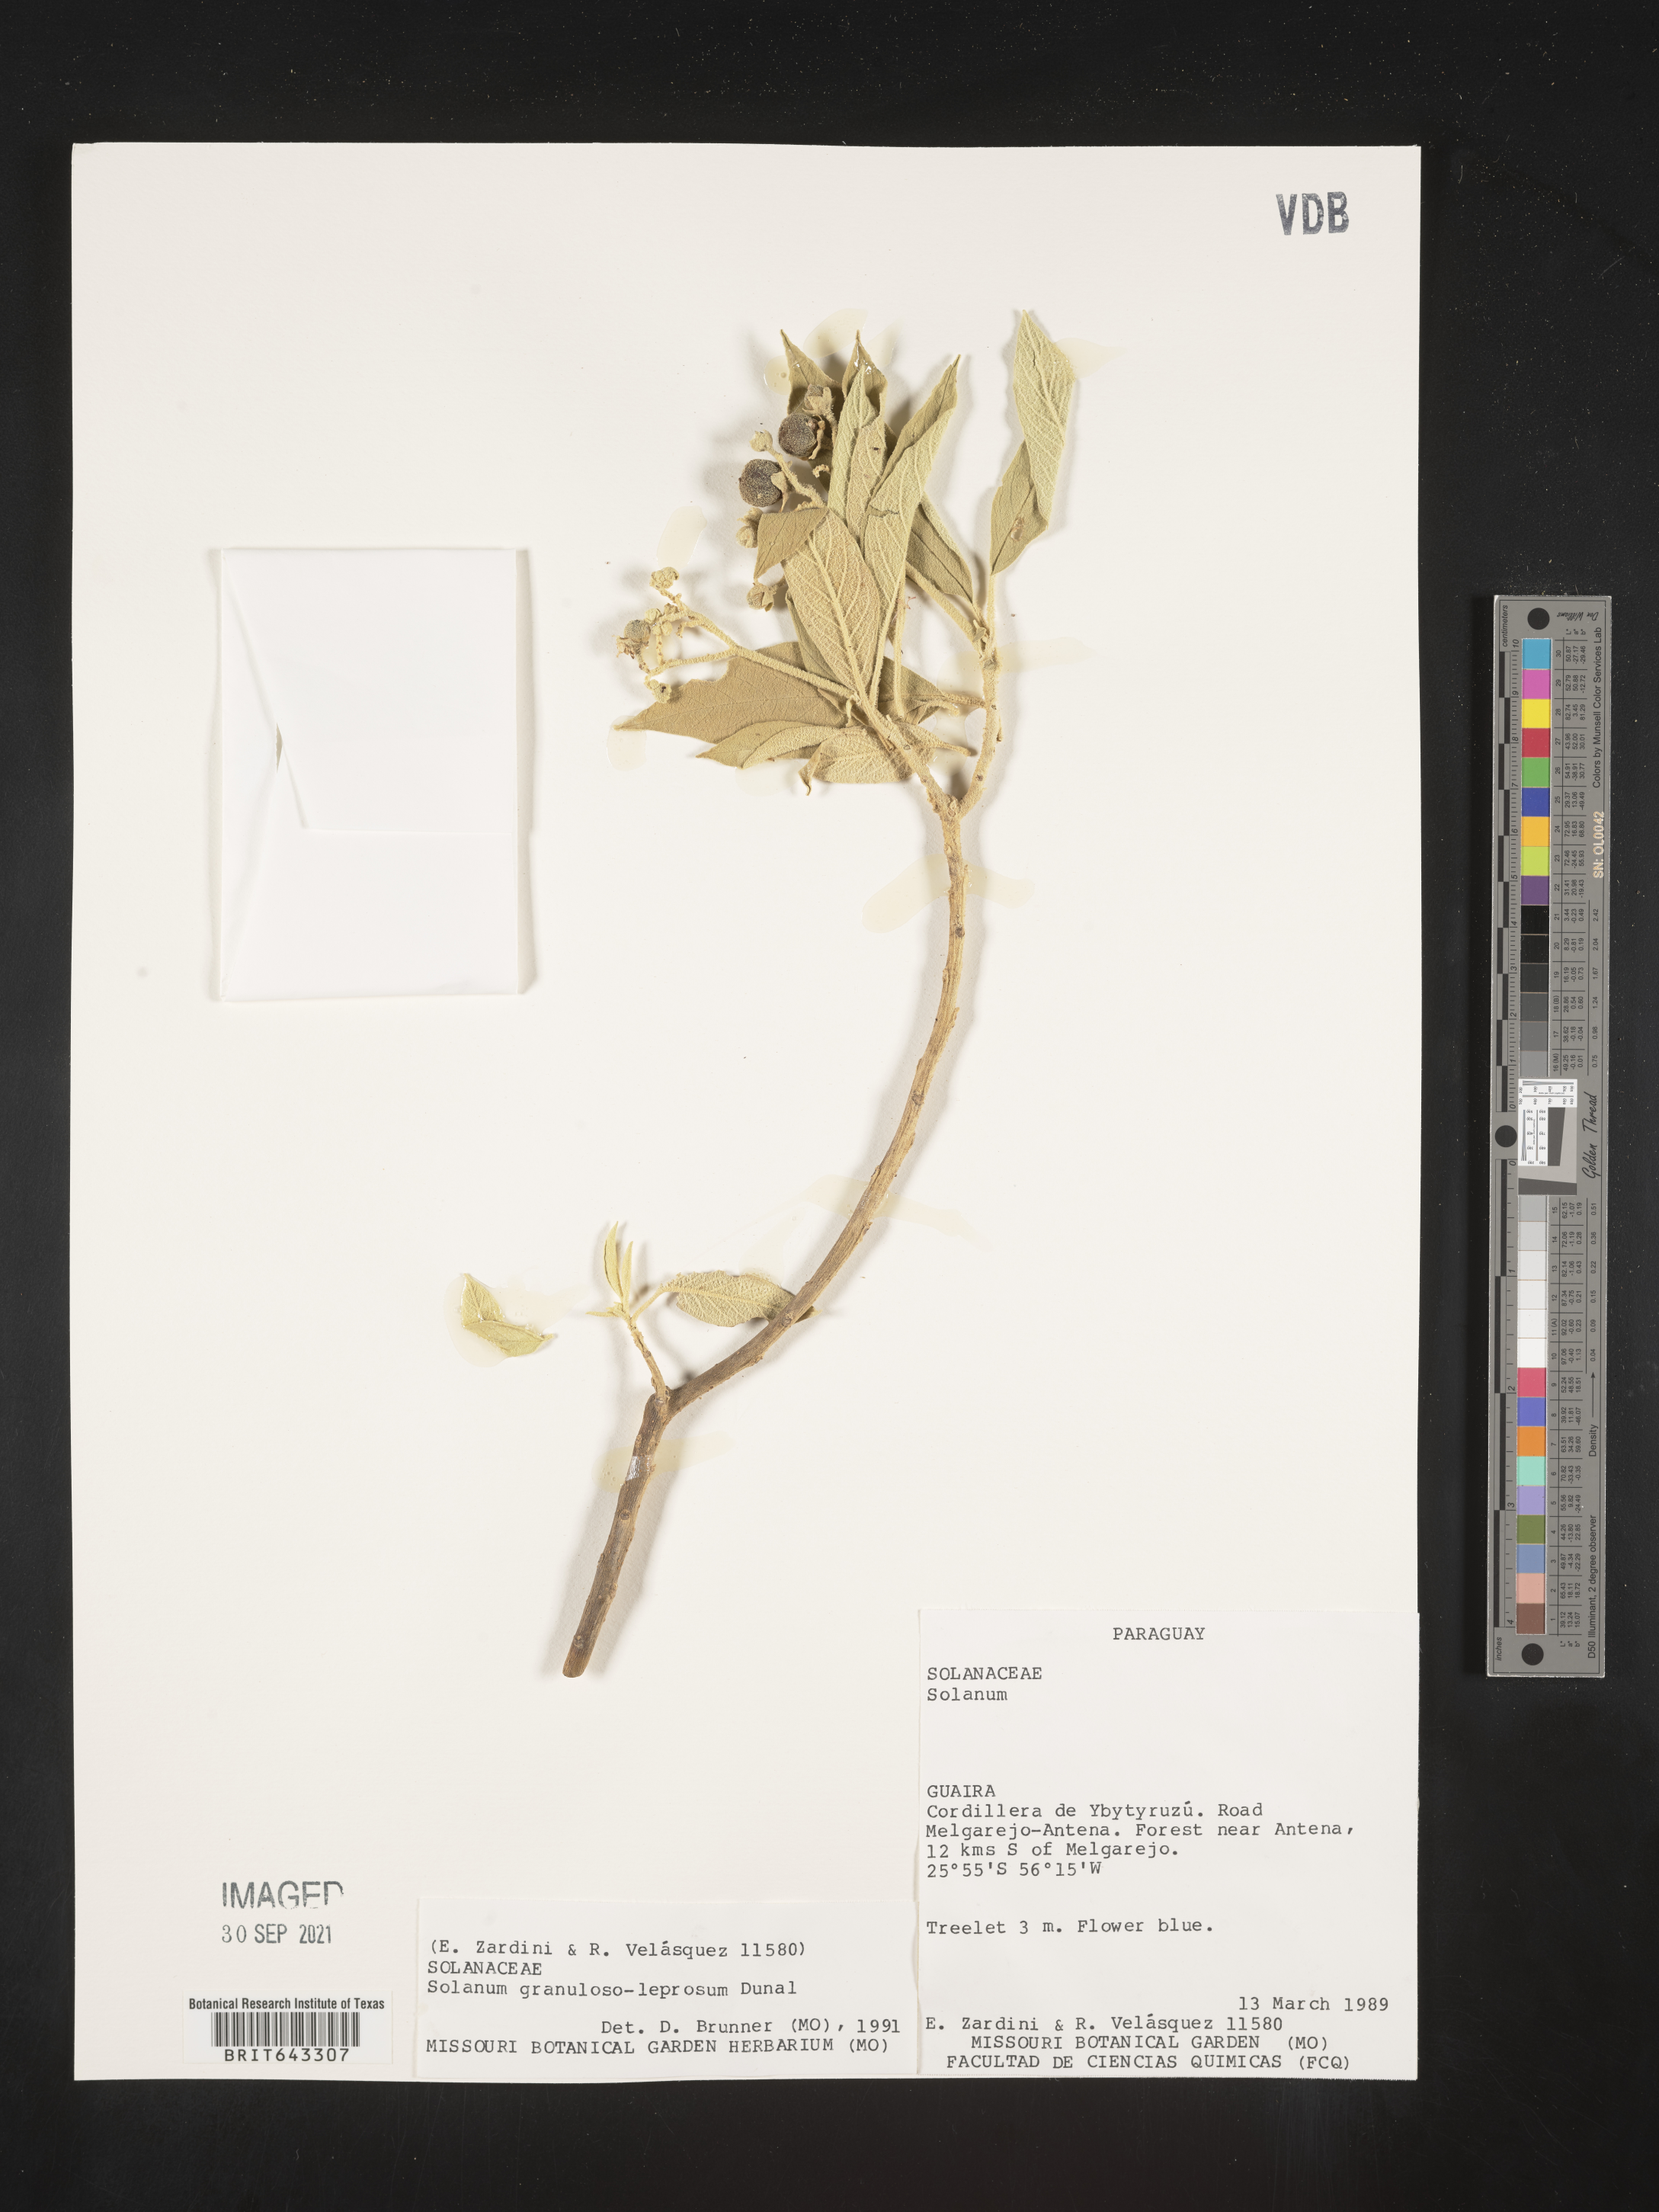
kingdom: Plantae
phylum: Tracheophyta
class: Magnoliopsida
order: Solanales
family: Solanaceae
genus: Solanum
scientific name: Solanum
